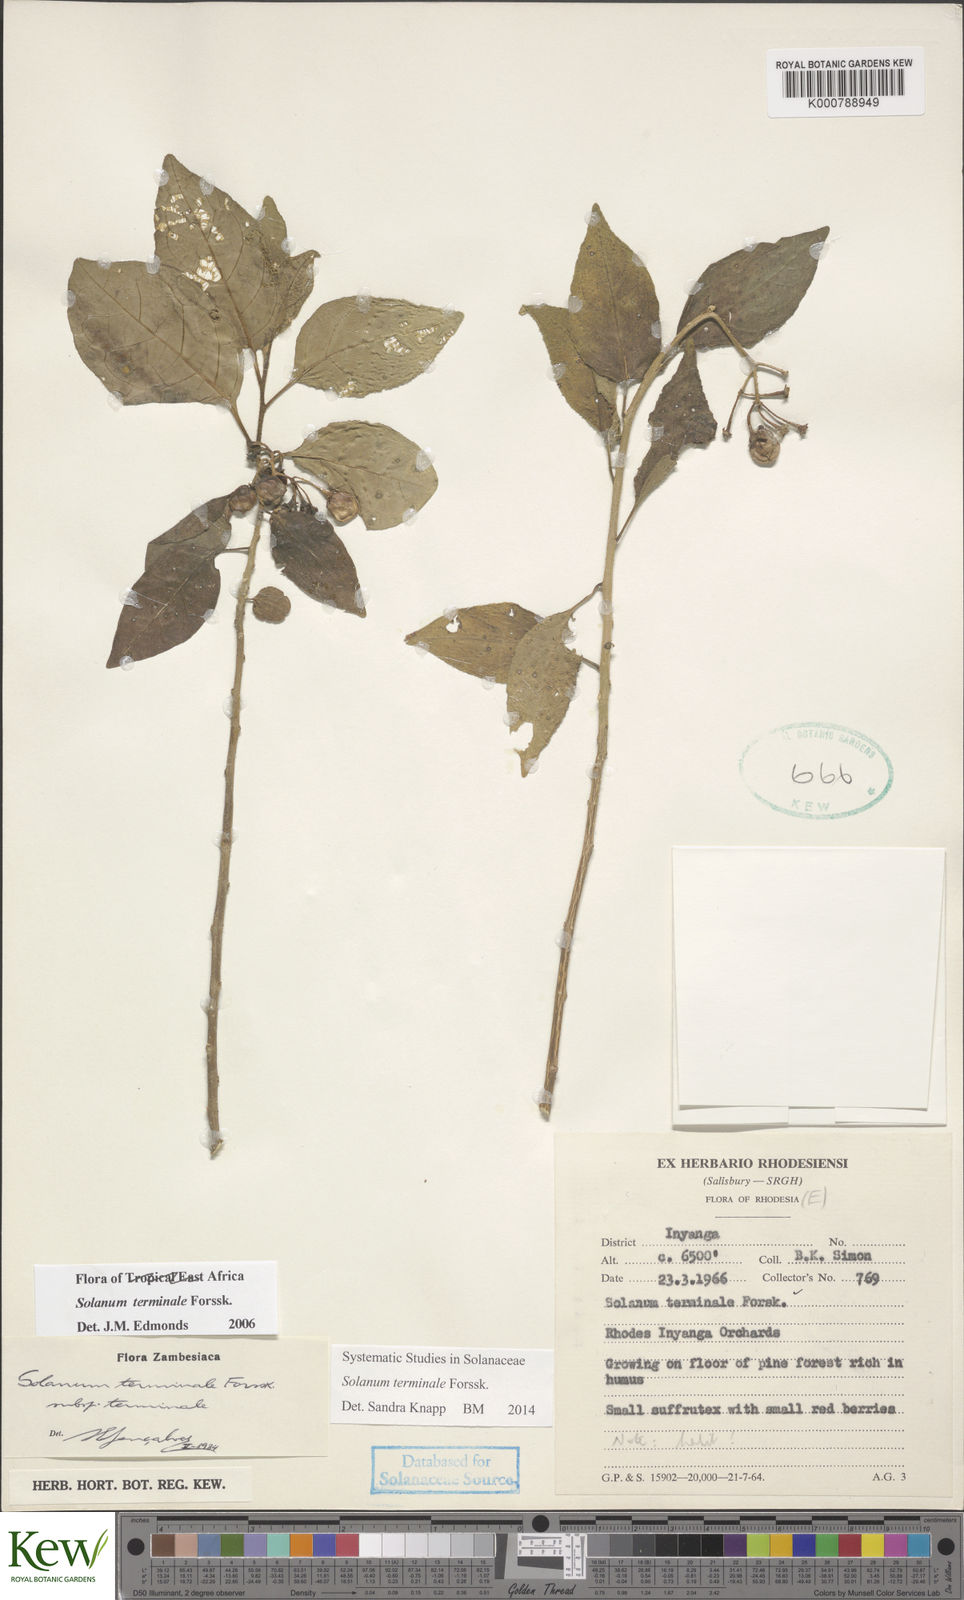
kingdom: Plantae
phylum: Tracheophyta
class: Magnoliopsida
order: Solanales
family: Solanaceae
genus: Solanum
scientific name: Solanum terminale
